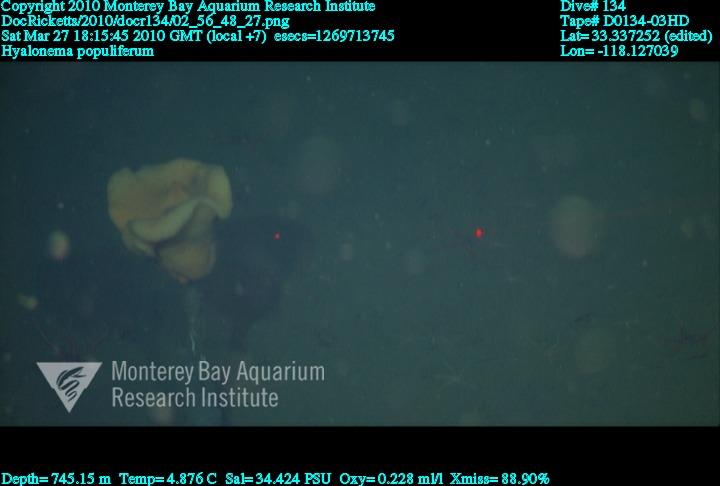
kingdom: Animalia
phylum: Porifera
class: Hexactinellida
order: Amphidiscosida
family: Hyalonematidae
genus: Hyalonema
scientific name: Hyalonema populiferum
